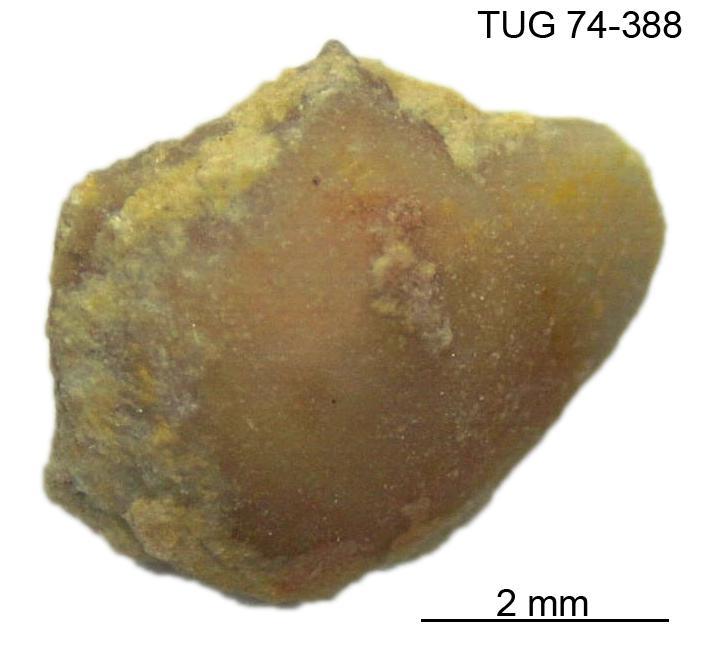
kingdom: Animalia
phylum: Brachiopoda
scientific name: Brachiopoda
